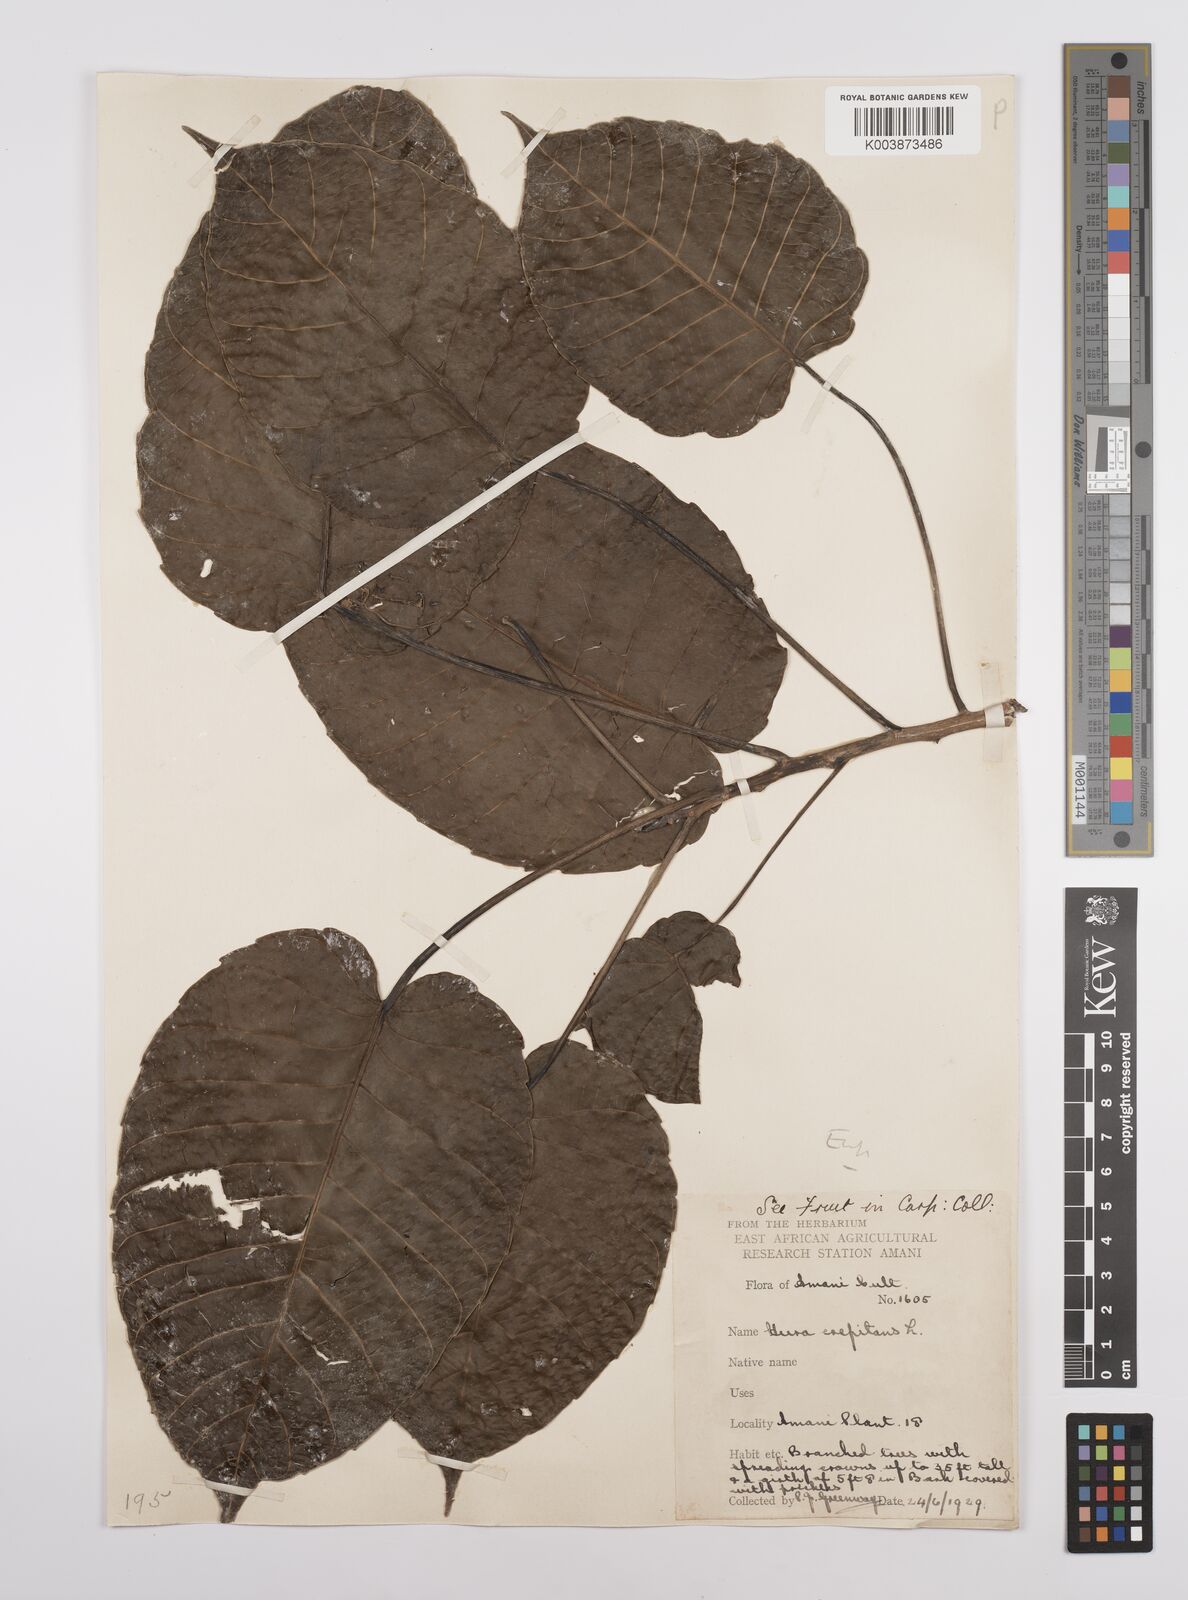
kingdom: Plantae
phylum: Tracheophyta
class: Magnoliopsida
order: Malpighiales
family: Euphorbiaceae
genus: Hura
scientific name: Hura crepitans
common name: Sandboxtree
